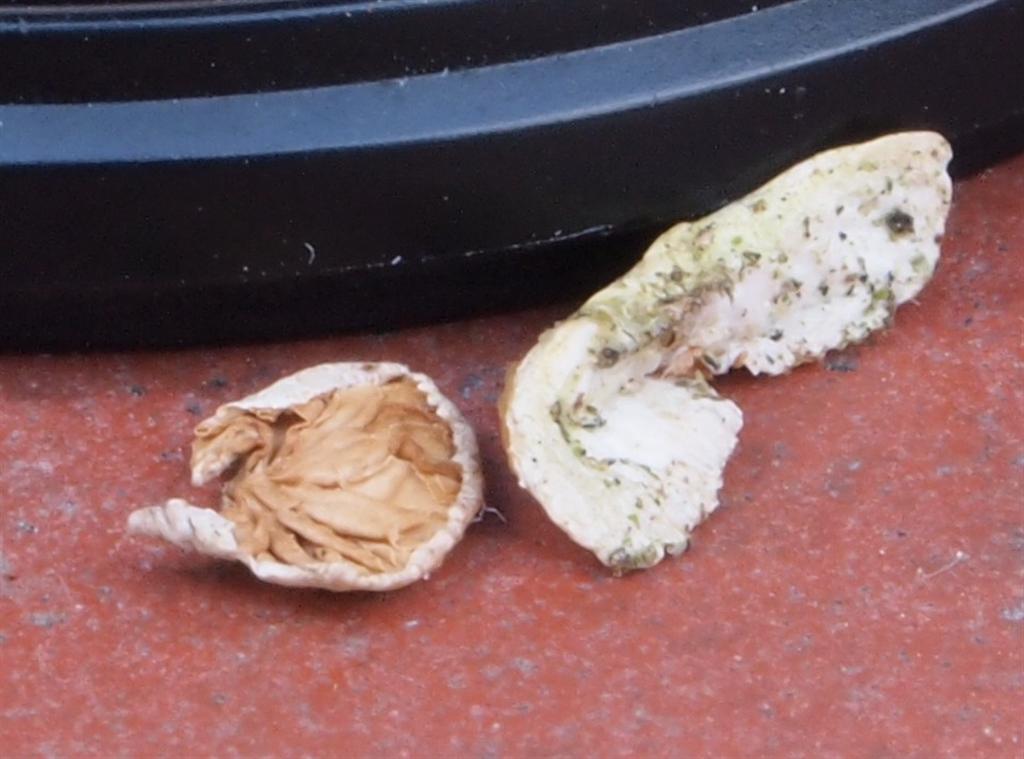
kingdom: Fungi
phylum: Basidiomycota
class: Agaricomycetes
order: Agaricales
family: Crepidotaceae
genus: Crepidotus
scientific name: Crepidotus cesatii
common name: almindelig muslingesvamp
